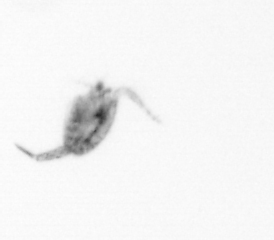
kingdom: Animalia
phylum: Arthropoda
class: Copepoda
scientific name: Copepoda
